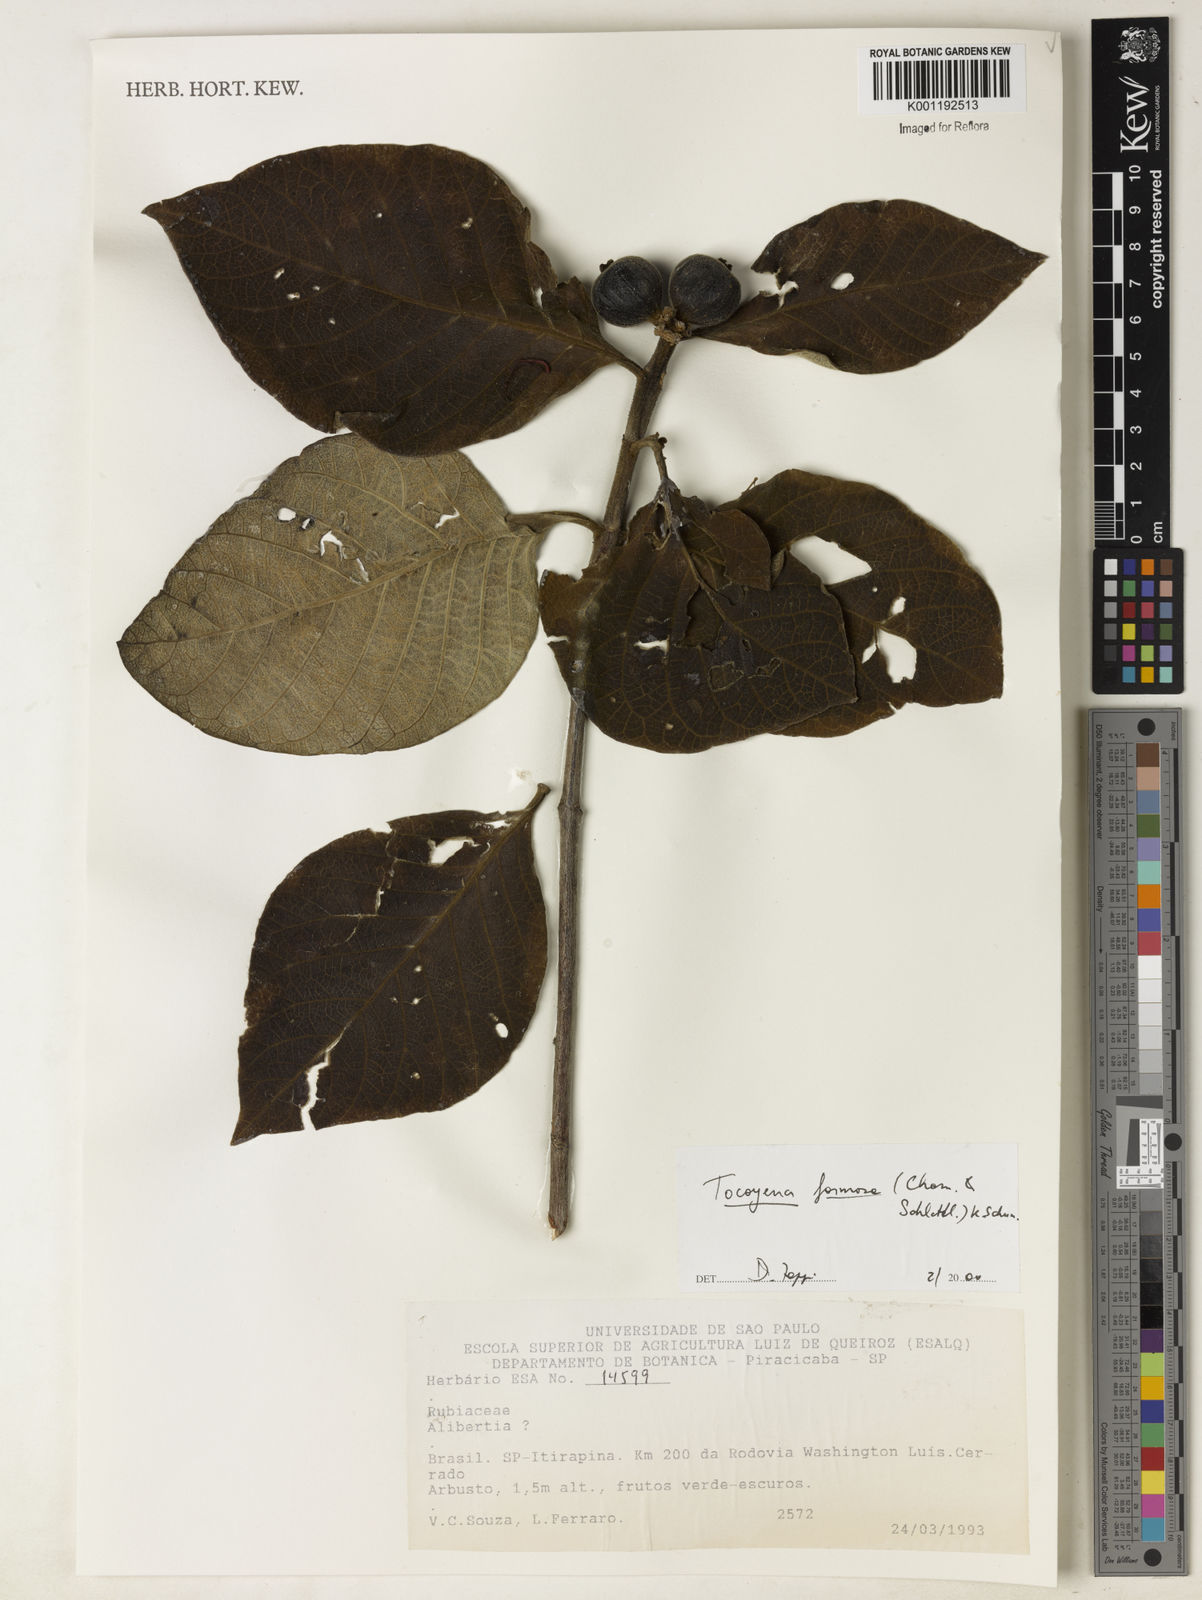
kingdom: Plantae
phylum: Tracheophyta
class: Magnoliopsida
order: Gentianales
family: Rubiaceae
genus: Tocoyena
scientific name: Tocoyena formosa
